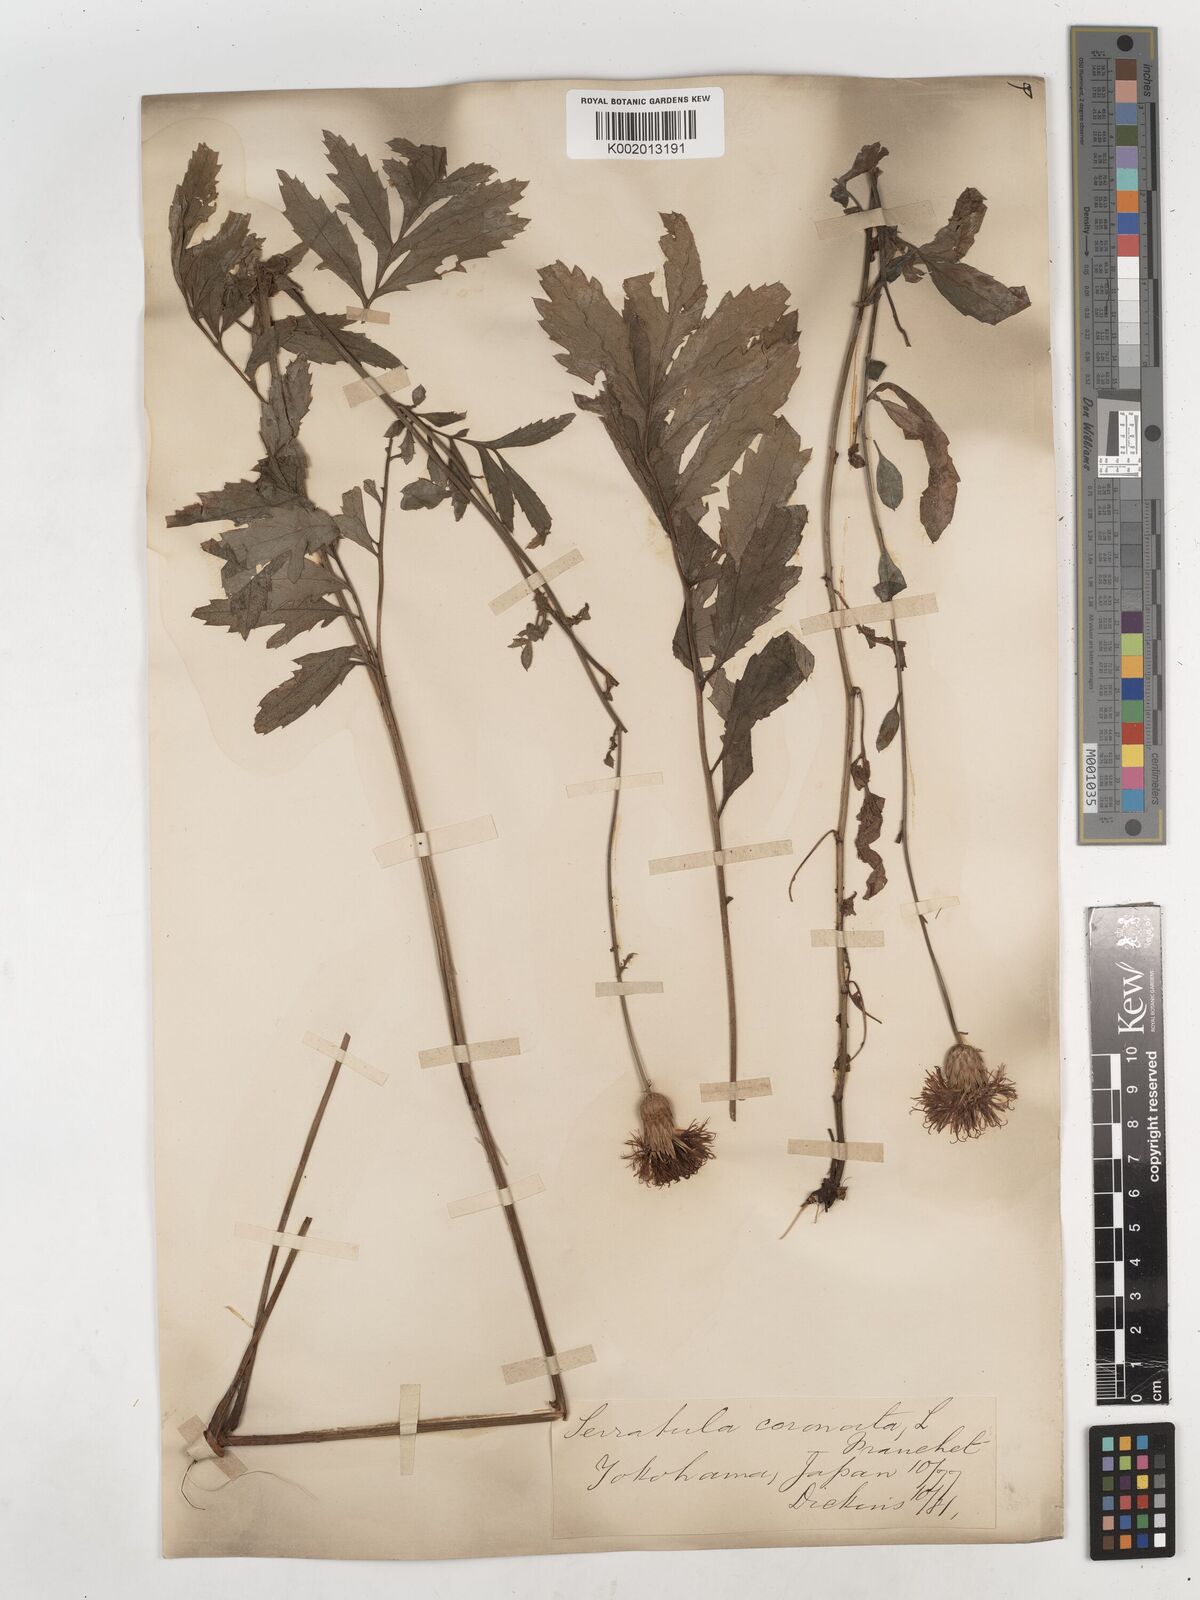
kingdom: Plantae
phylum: Tracheophyta
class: Magnoliopsida
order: Asterales
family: Asteraceae
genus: Serratula
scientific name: Serratula coronata
